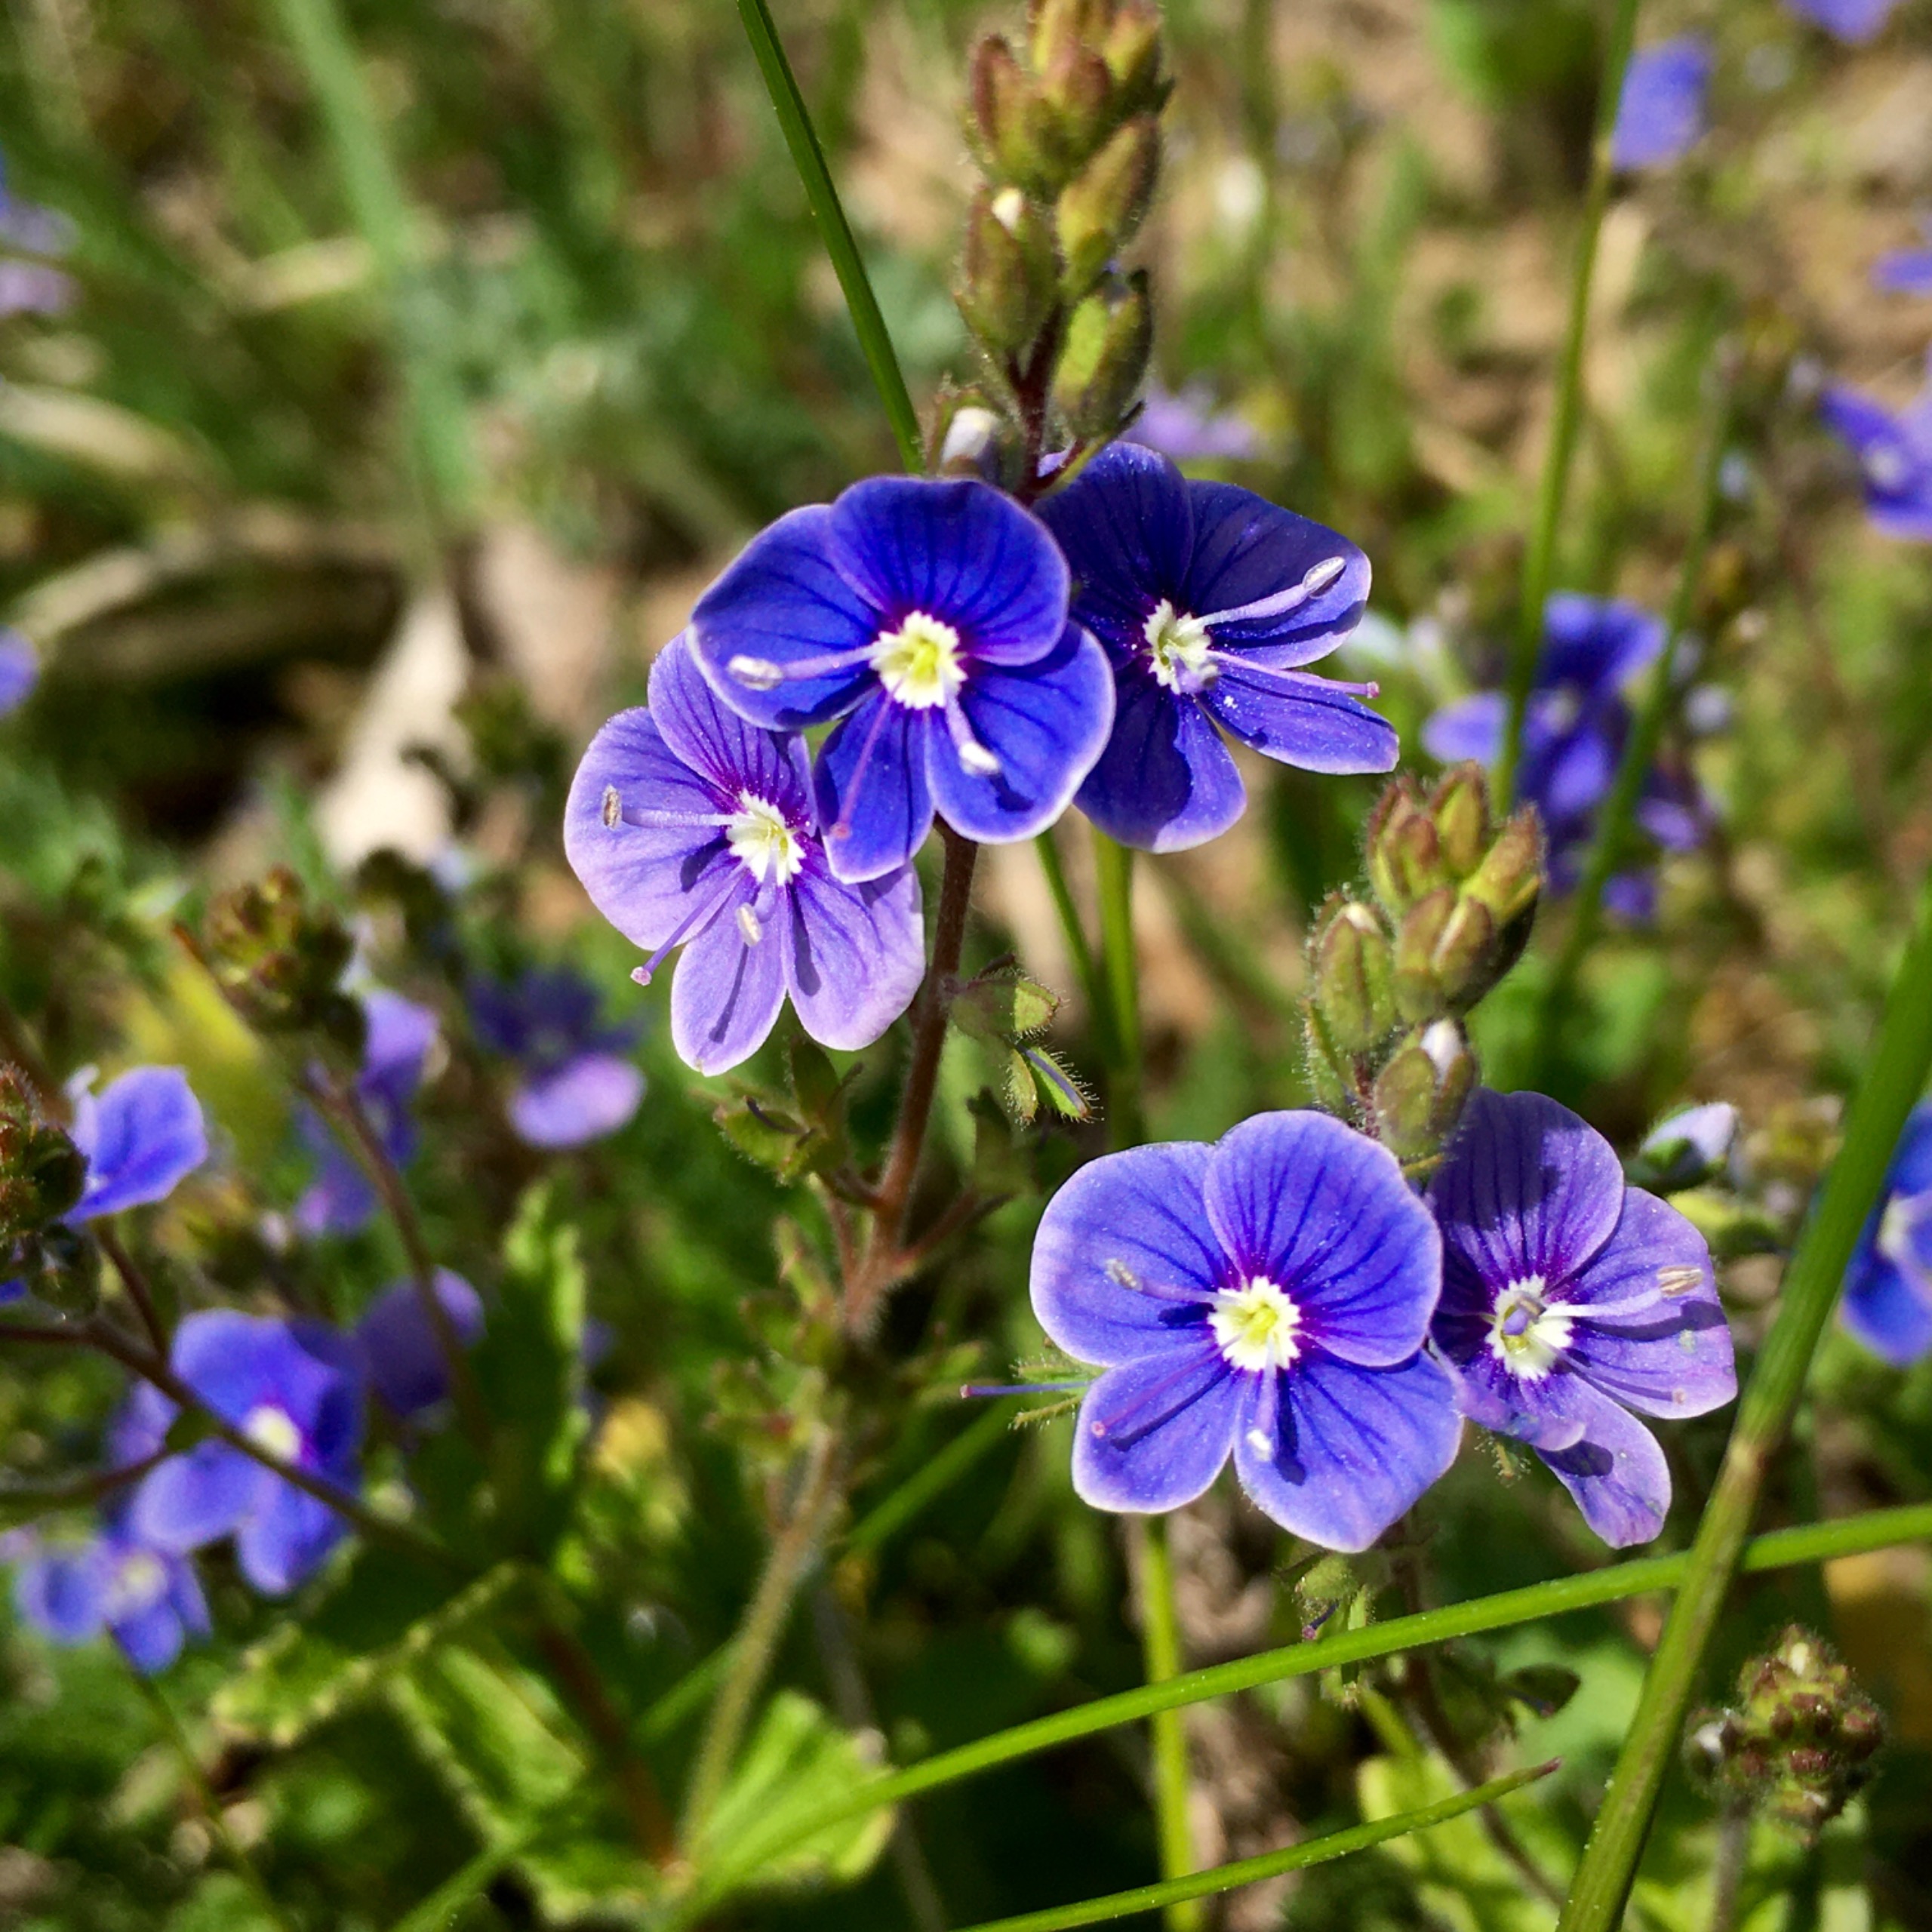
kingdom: Plantae
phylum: Tracheophyta
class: Magnoliopsida
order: Lamiales
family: Plantaginaceae
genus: Veronica
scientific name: Veronica chamaedrys
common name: Tveskægget ærenpris
